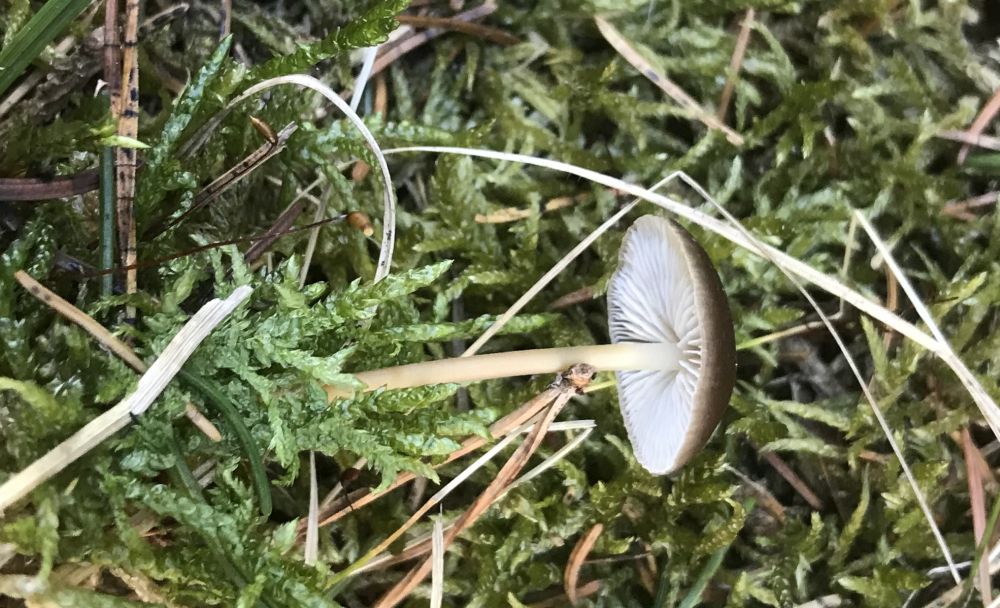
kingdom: Fungi
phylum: Basidiomycota
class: Agaricomycetes
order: Agaricales
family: Physalacriaceae
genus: Strobilurus
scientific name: Strobilurus esculentus
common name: gran-koglehat
